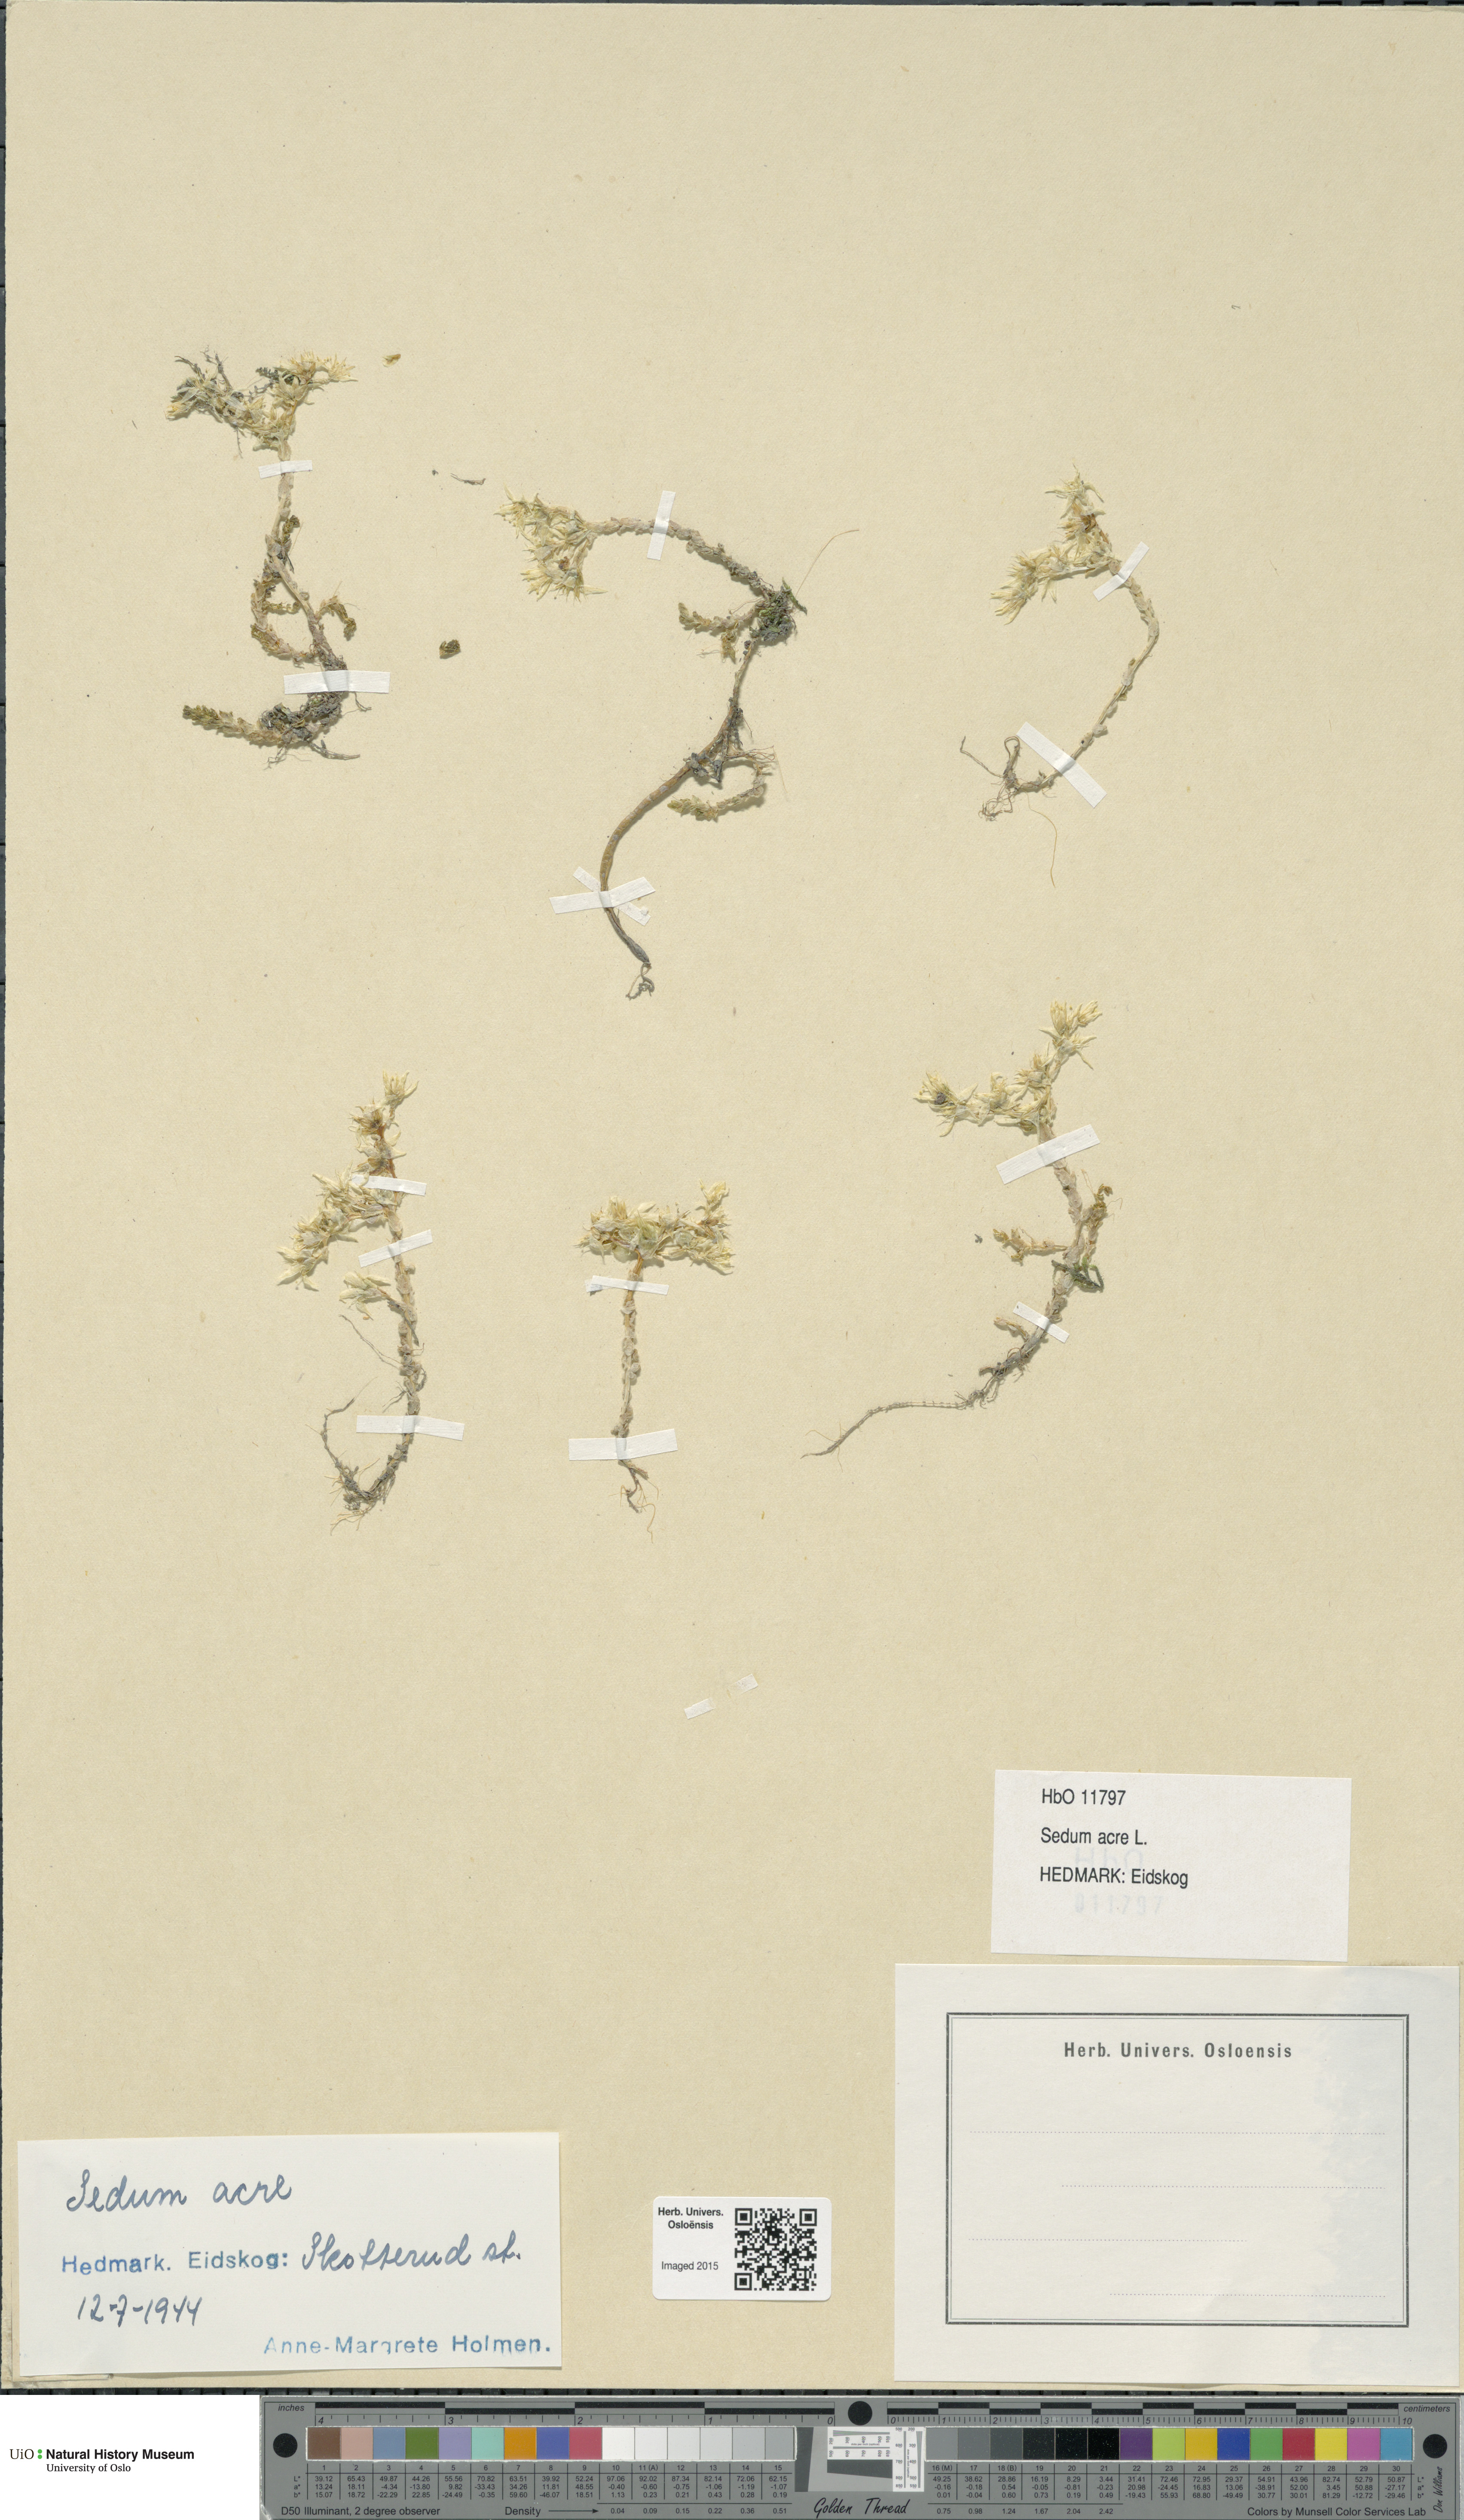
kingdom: Plantae
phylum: Tracheophyta
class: Magnoliopsida
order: Saxifragales
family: Crassulaceae
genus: Sedum
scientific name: Sedum acre
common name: Biting stonecrop
